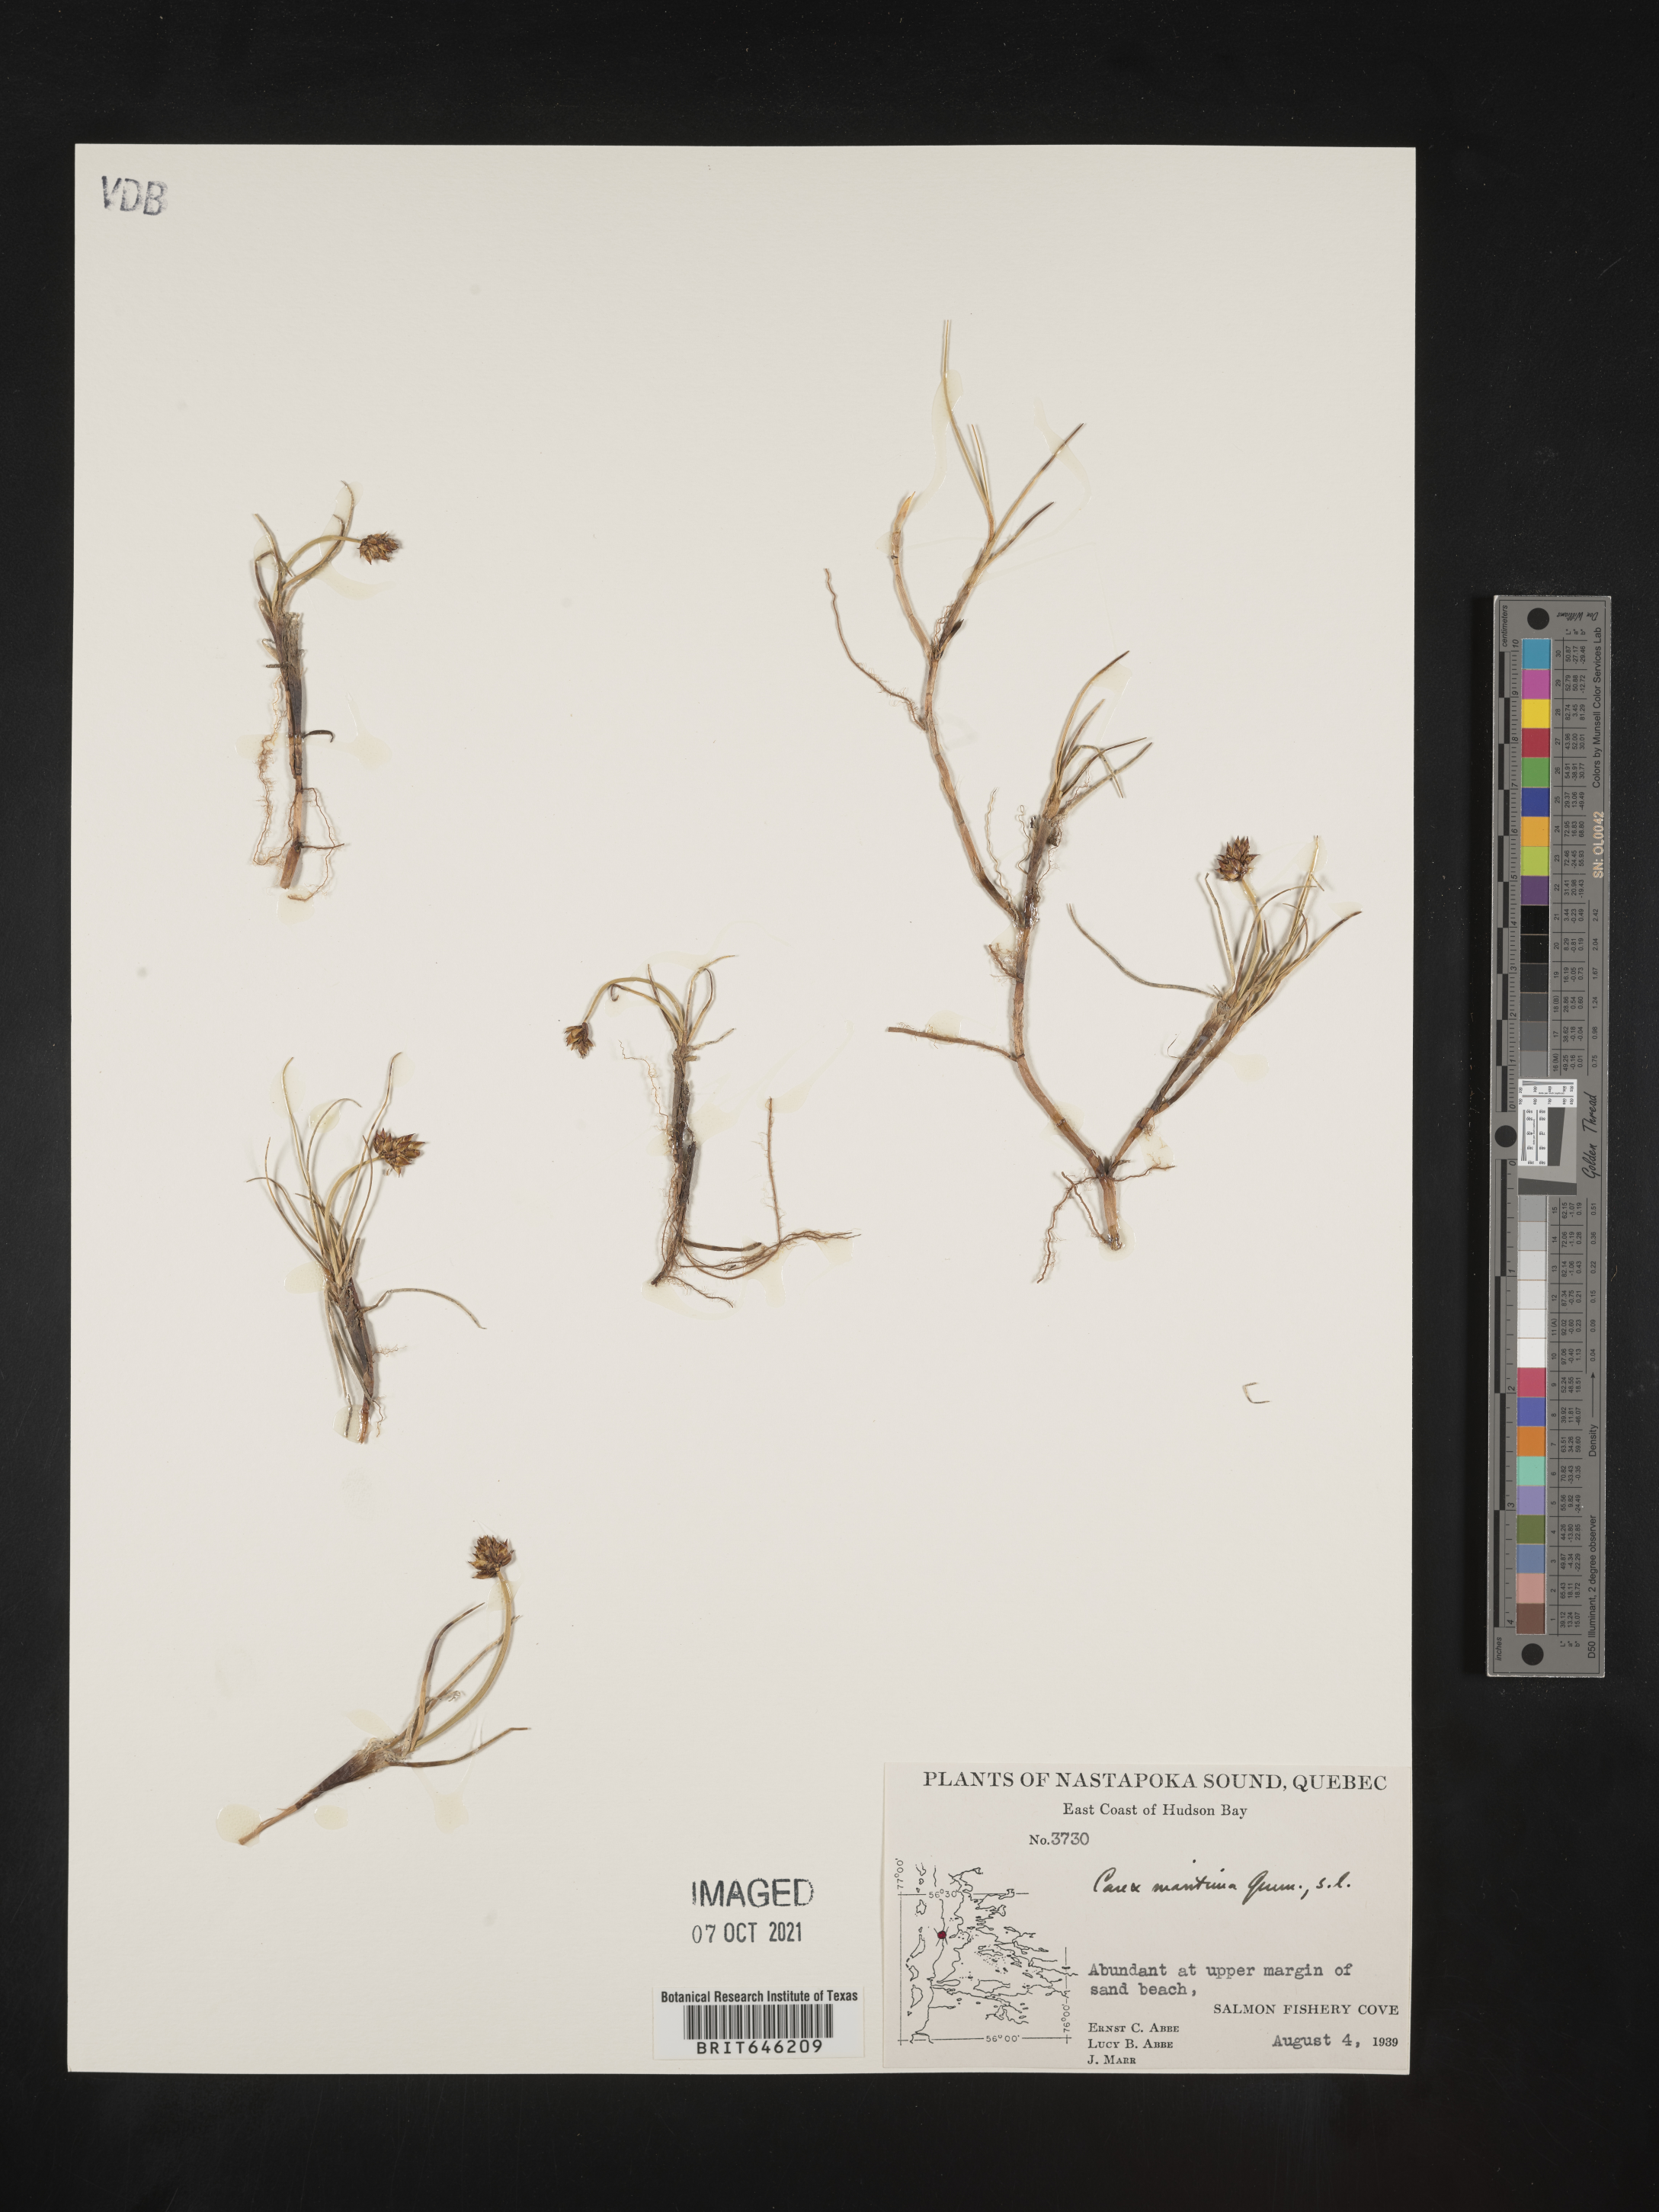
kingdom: Plantae
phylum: Tracheophyta
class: Liliopsida
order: Poales
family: Cyperaceae
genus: Carex
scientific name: Carex maritima
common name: Curved sedge
